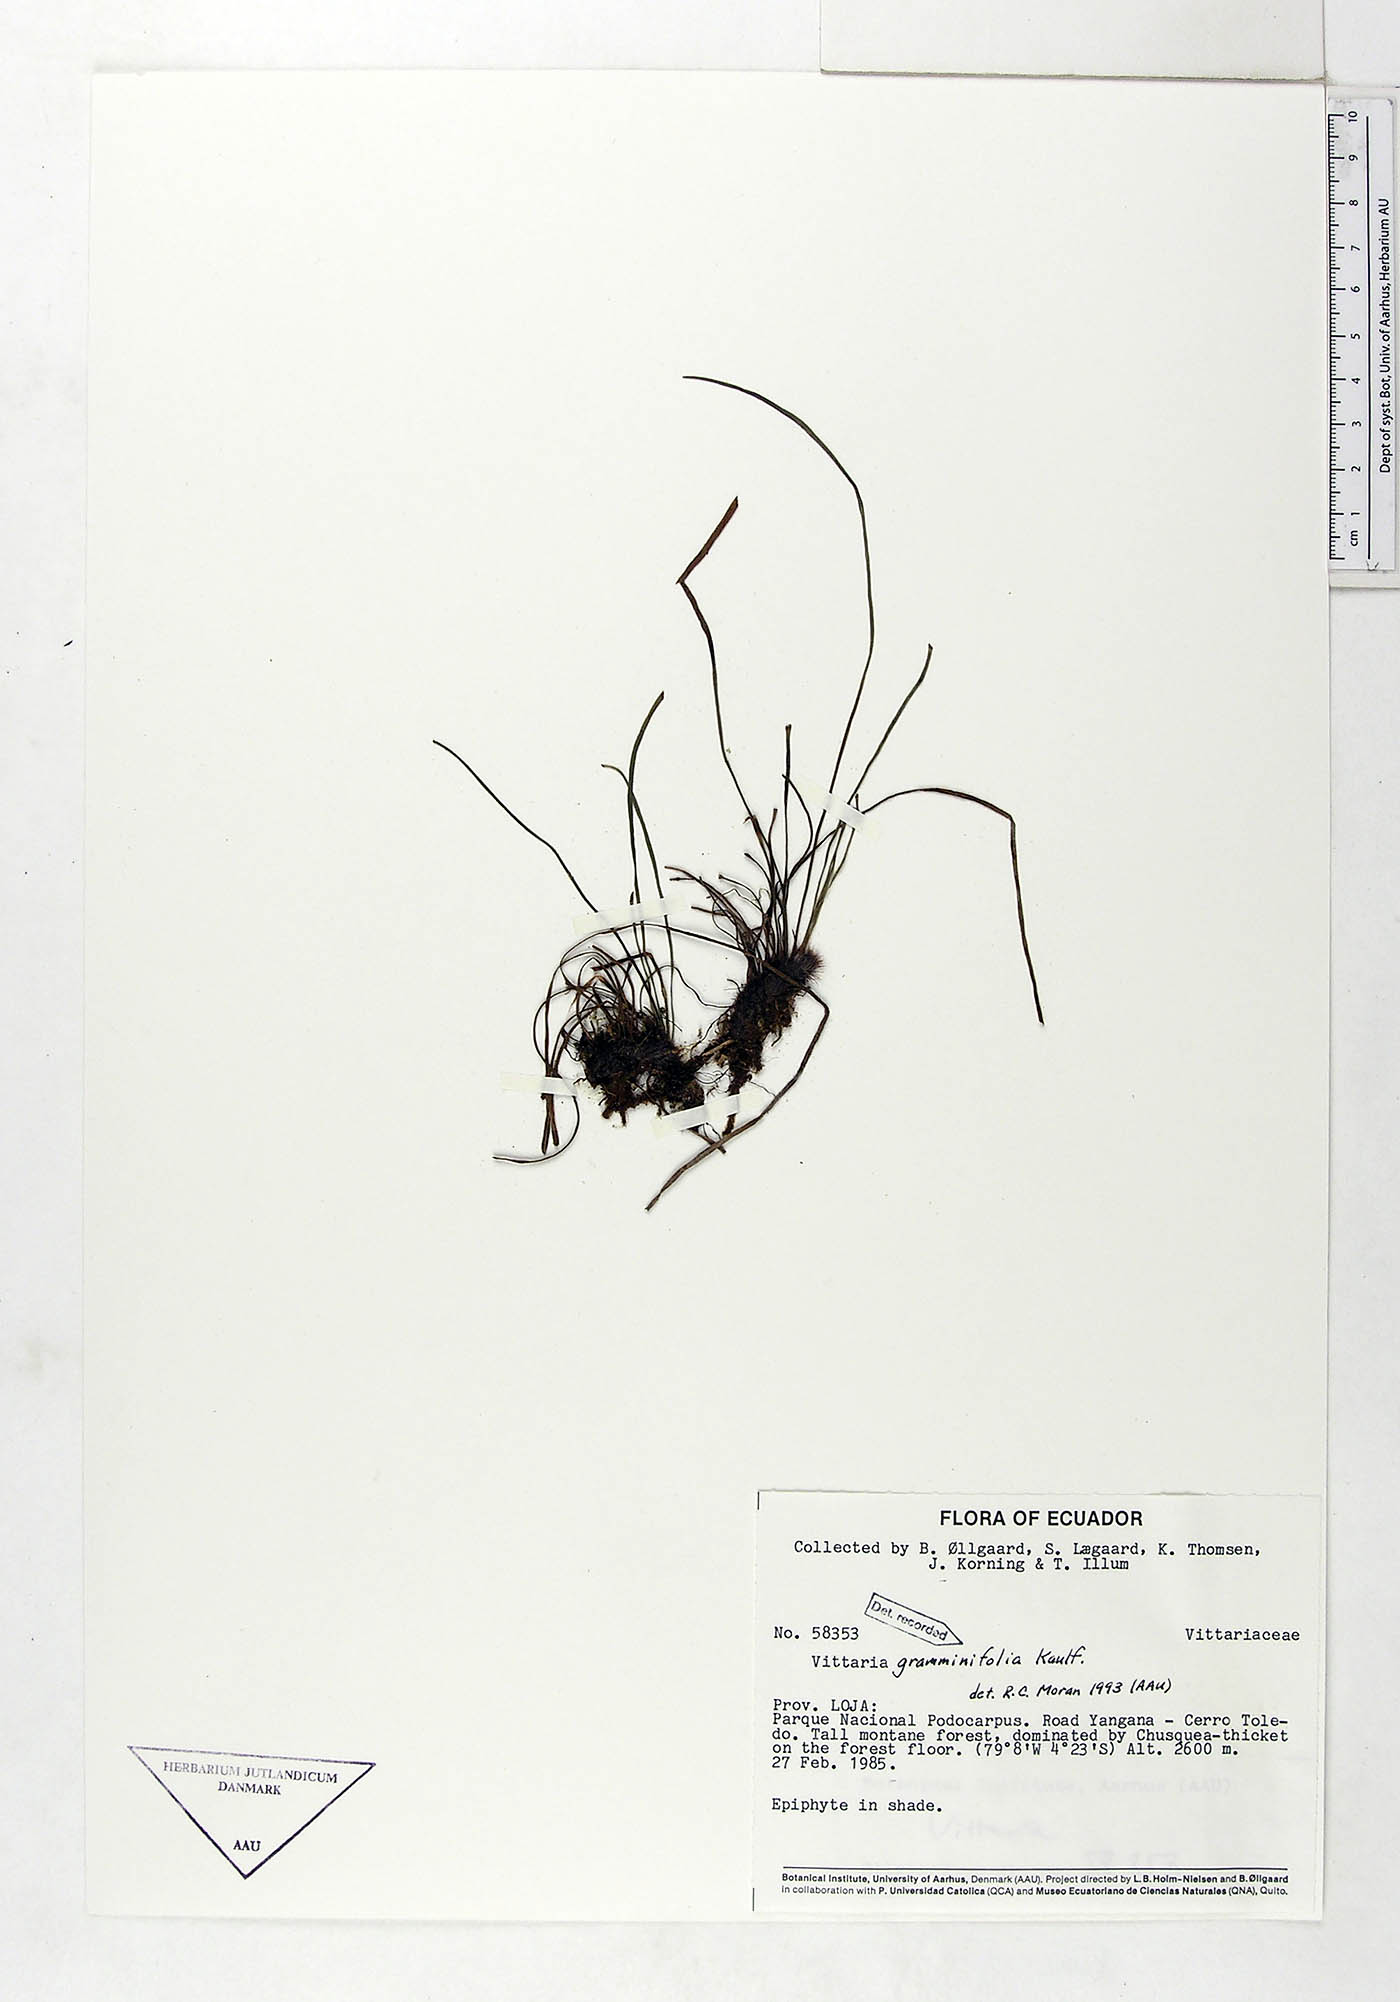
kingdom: Plantae
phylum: Tracheophyta
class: Polypodiopsida
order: Polypodiales
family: Pteridaceae
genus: Vittaria
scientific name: Vittaria graminifolia
